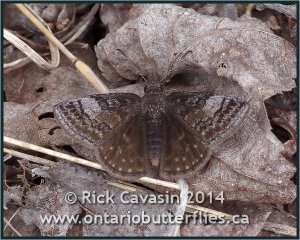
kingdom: Animalia
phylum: Arthropoda
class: Insecta
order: Lepidoptera
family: Hesperiidae
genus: Erynnis
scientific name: Erynnis icelus
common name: Dreamy Duskywing
